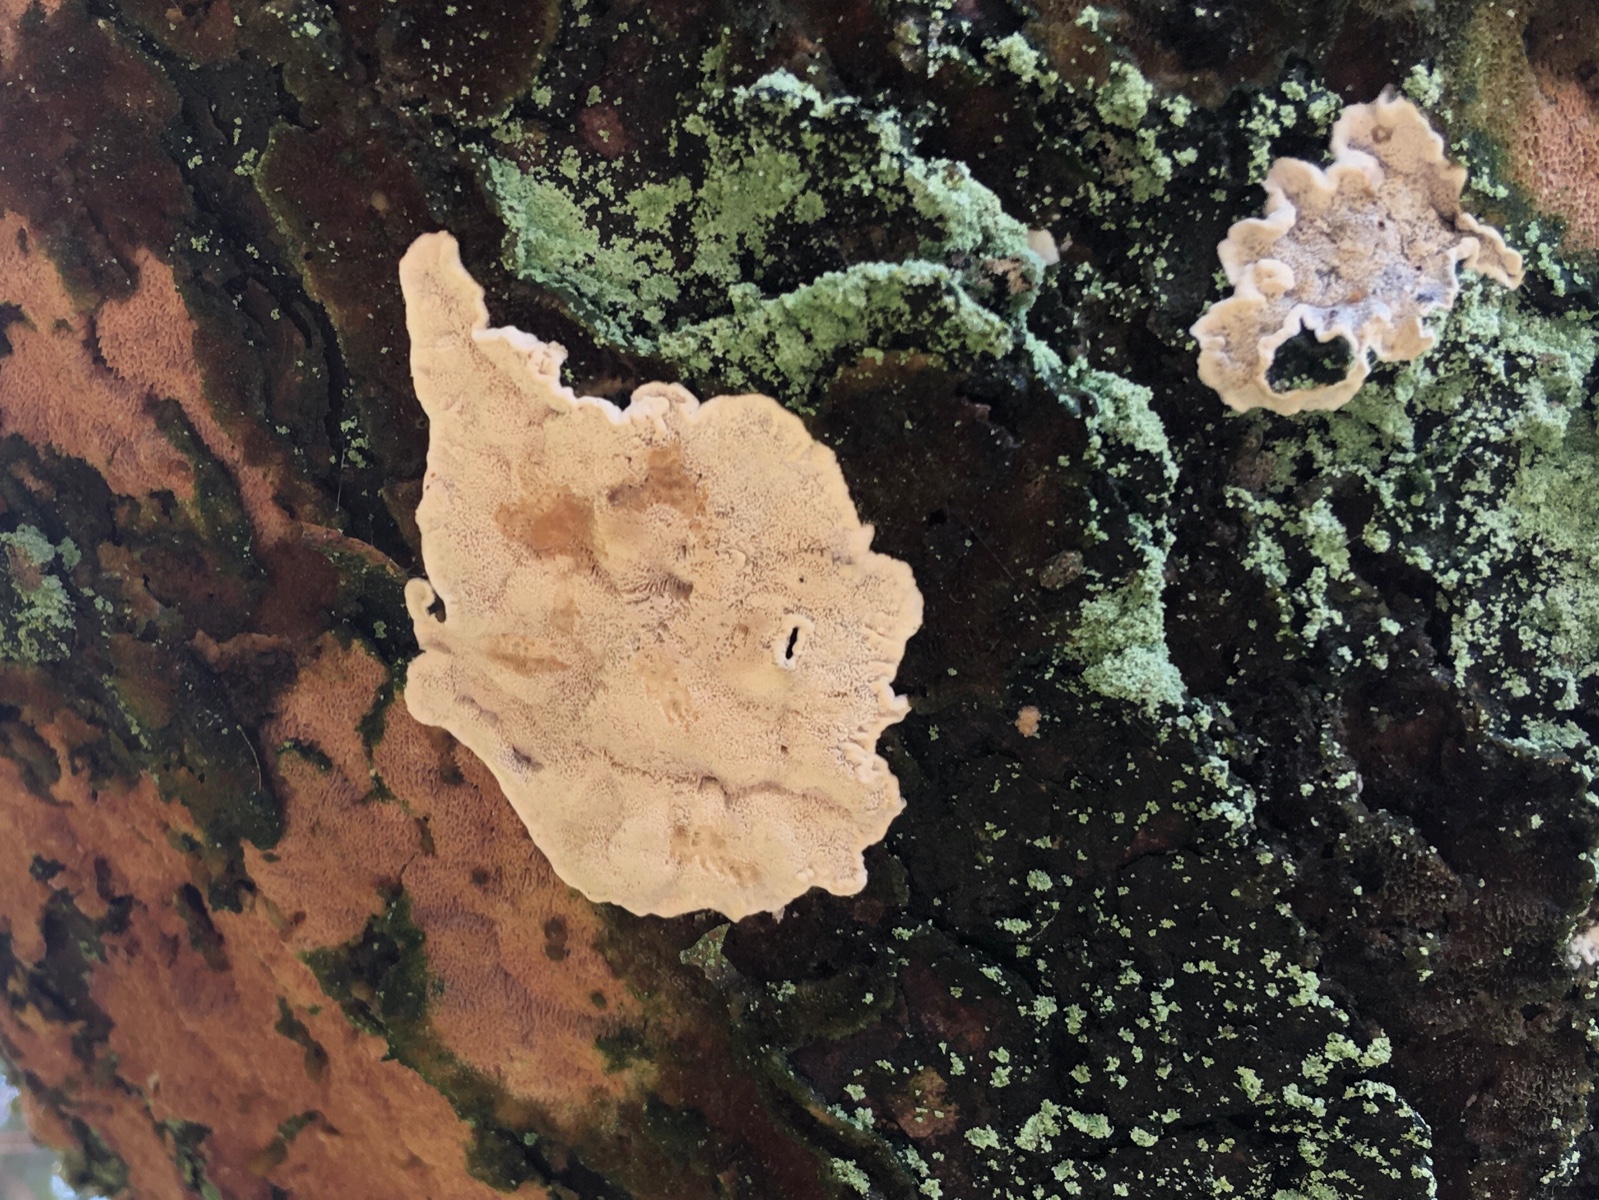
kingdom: Fungi
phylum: Basidiomycota
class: Agaricomycetes
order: Polyporales
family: Incrustoporiaceae
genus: Skeletocutis
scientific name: Skeletocutis carneogrisea
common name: rødgrå krystalporesvamp
